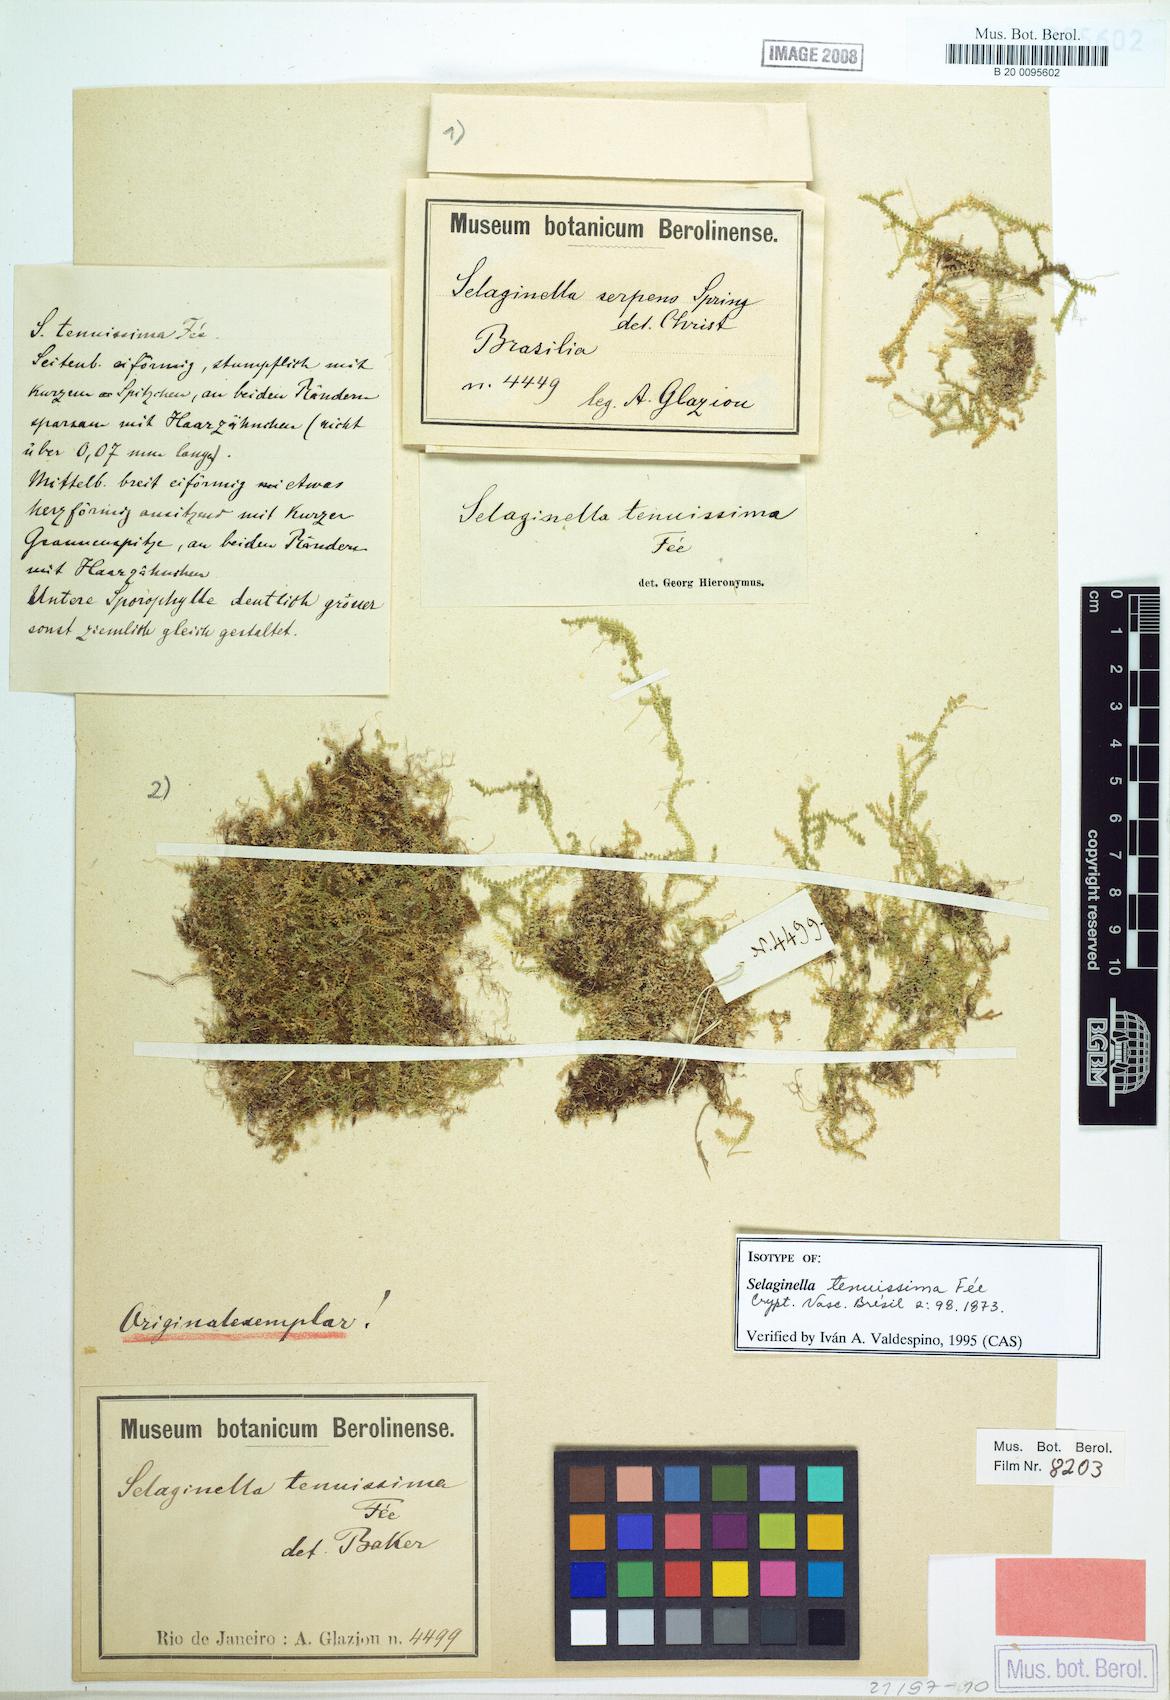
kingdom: Plantae
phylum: Tracheophyta
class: Lycopodiopsida
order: Selaginellales
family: Selaginellaceae
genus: Selaginella
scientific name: Selaginella tenuissima
